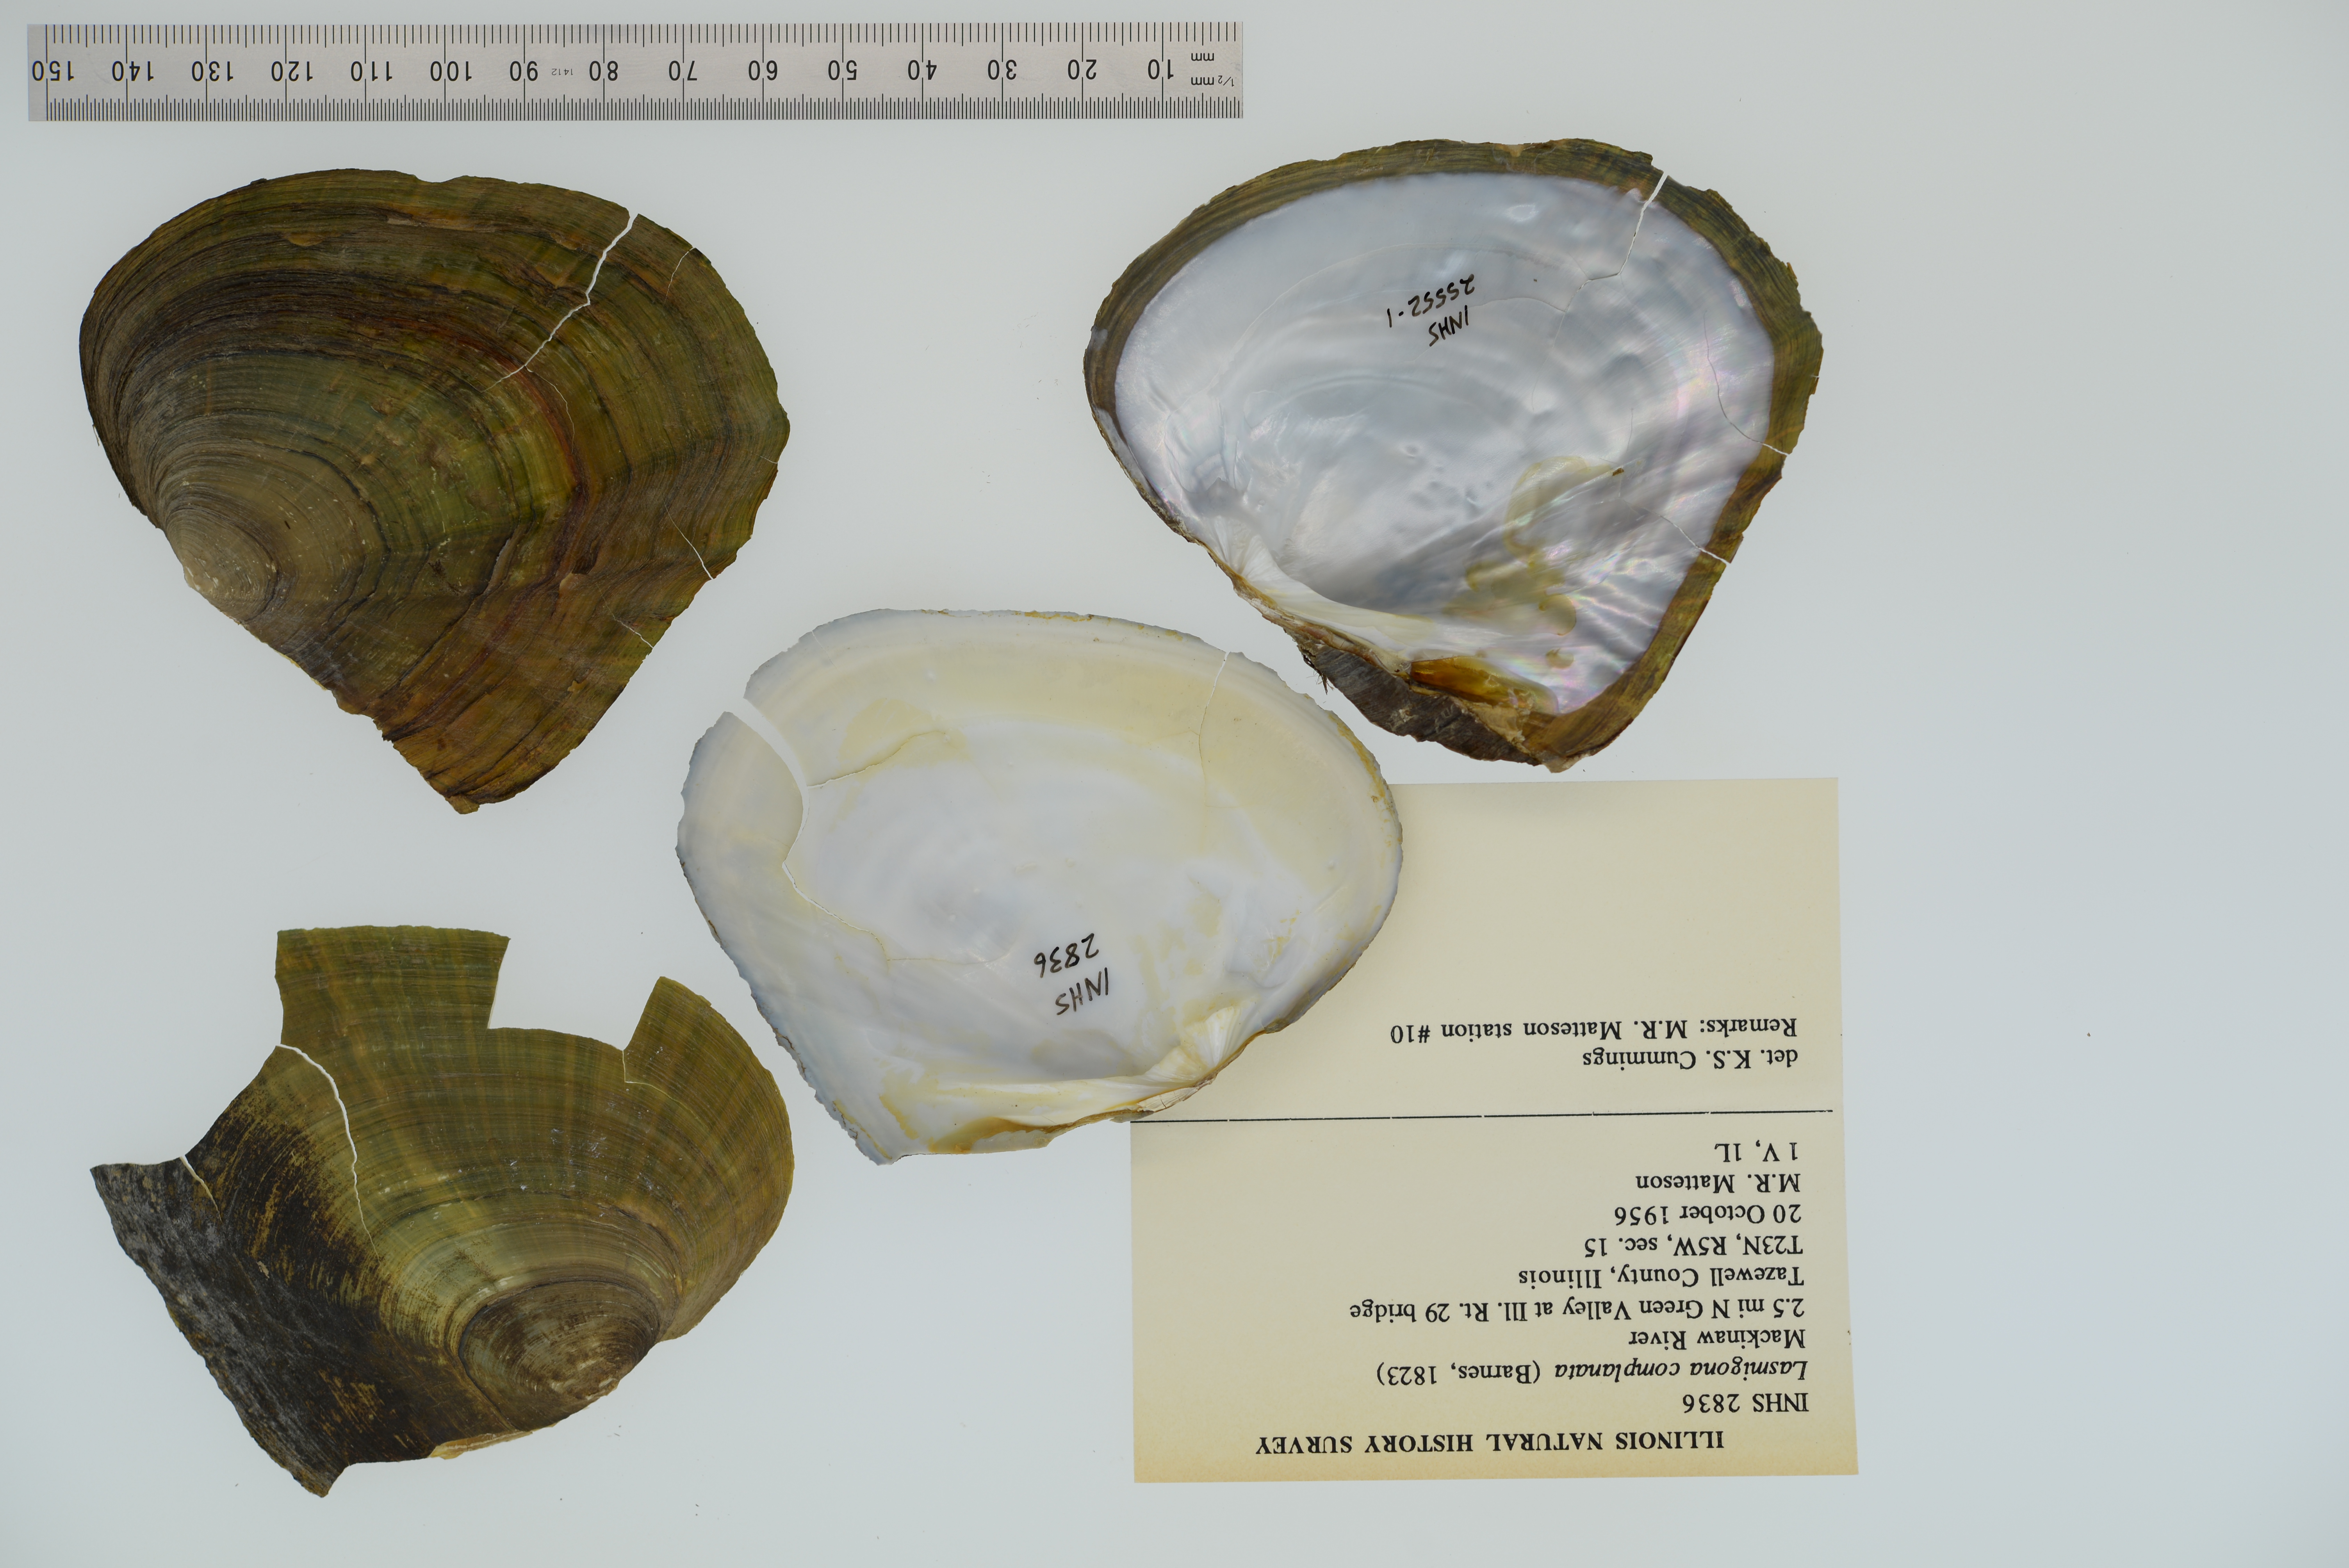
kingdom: Animalia
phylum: Mollusca
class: Bivalvia
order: Unionida
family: Unionidae
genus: Lasmigona
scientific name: Lasmigona complanata
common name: White heelsplitter
